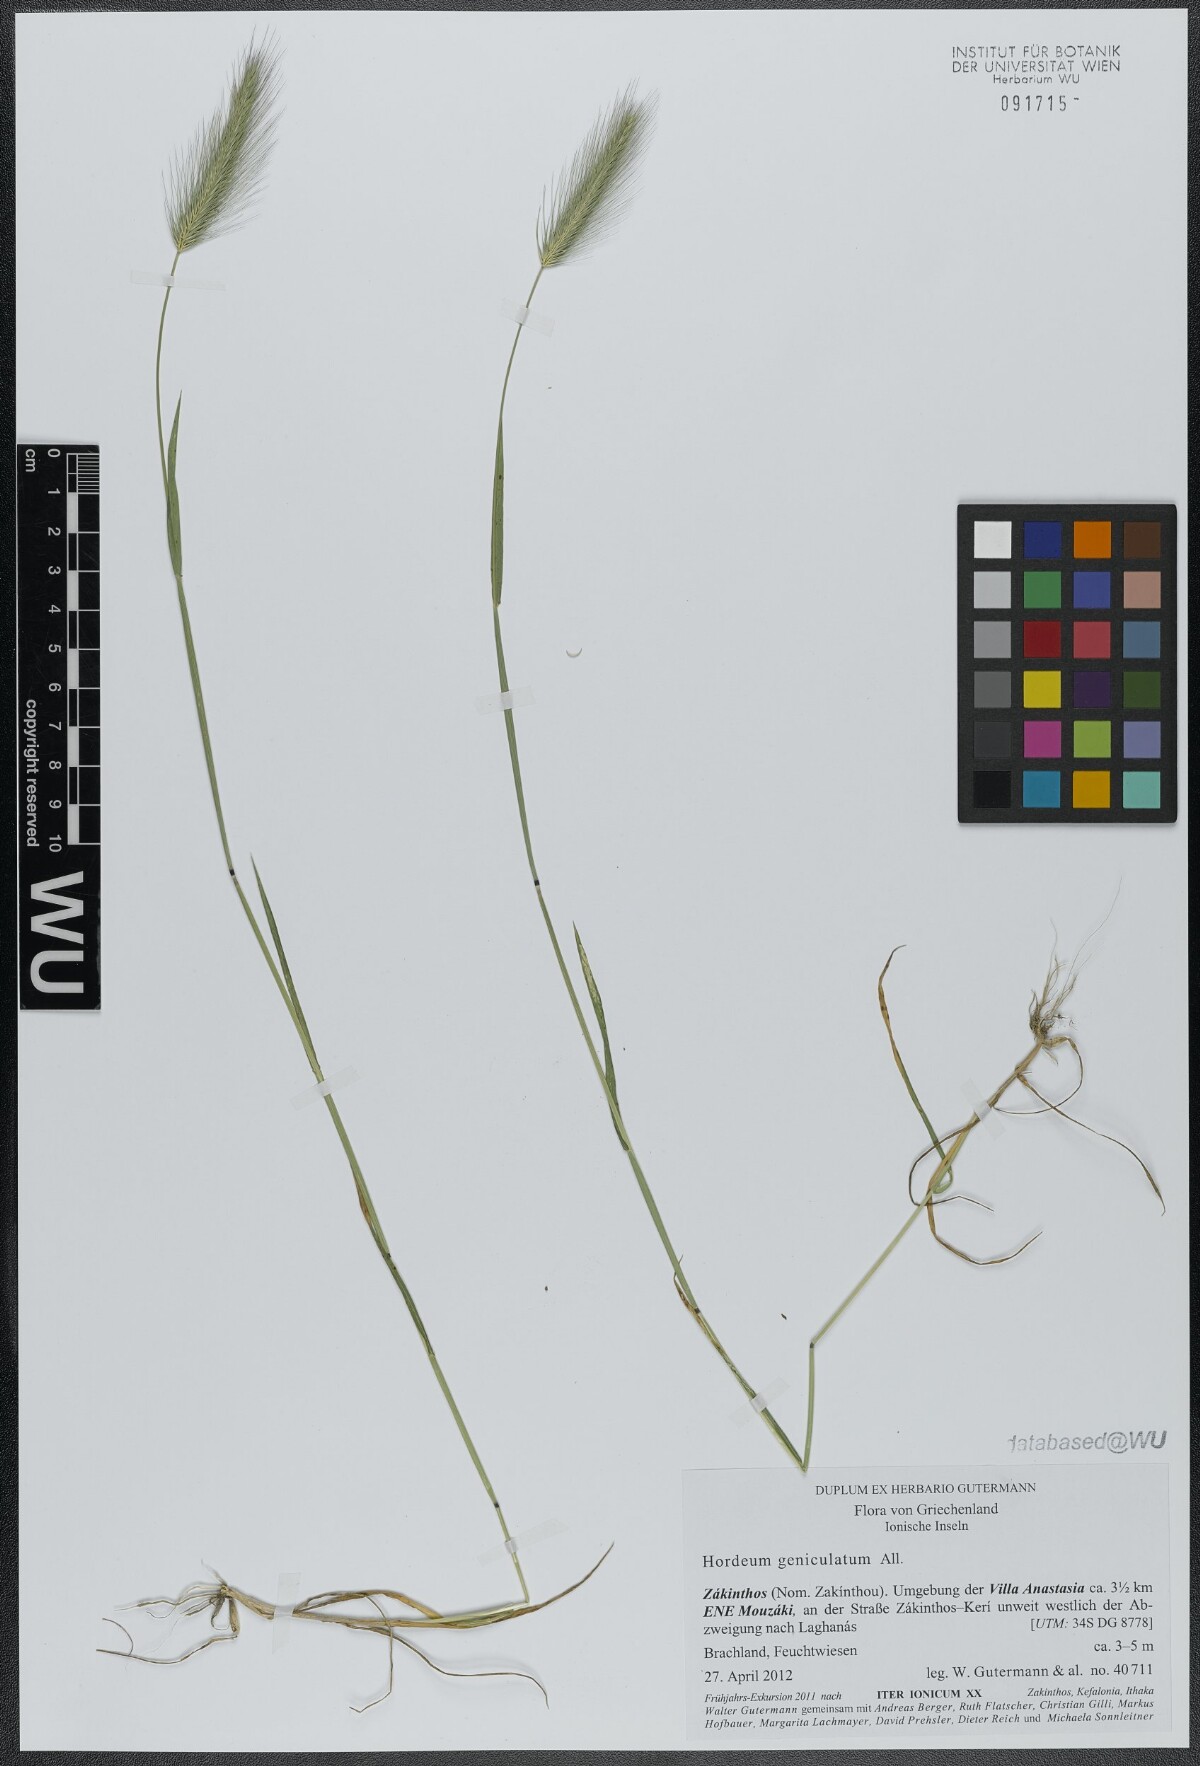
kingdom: Plantae
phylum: Tracheophyta
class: Liliopsida
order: Poales
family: Poaceae
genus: Hordeum
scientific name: Hordeum marinum
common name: Sea barley
